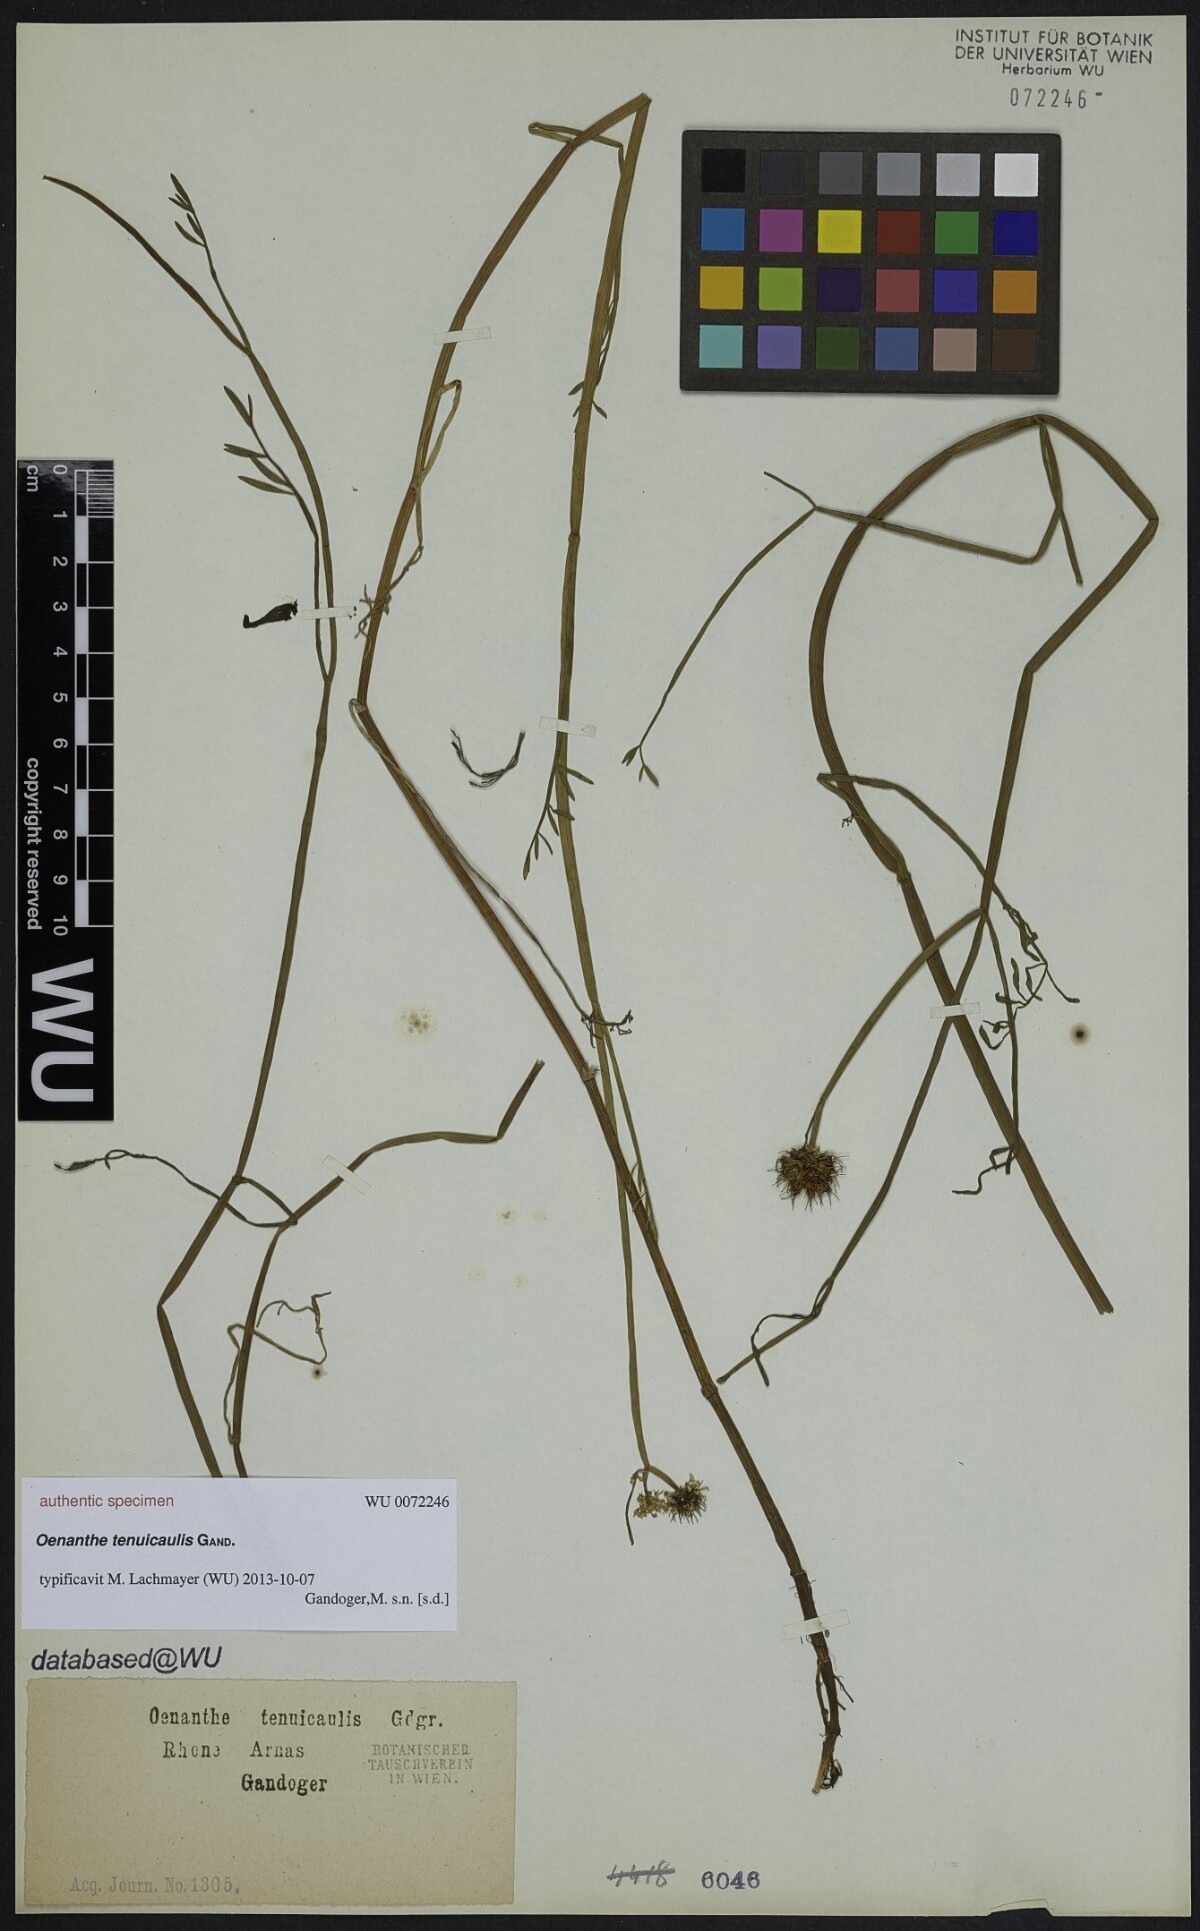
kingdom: Plantae
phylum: Tracheophyta
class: Magnoliopsida
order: Apiales
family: Apiaceae
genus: Oenanthe
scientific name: Oenanthe
